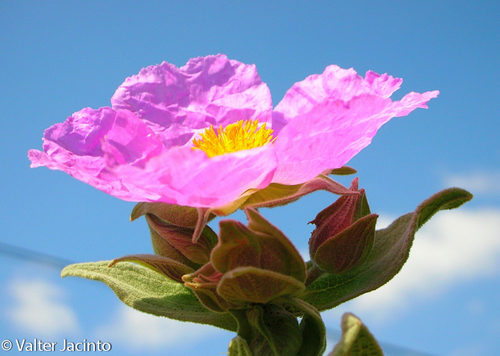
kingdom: Plantae
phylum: Tracheophyta
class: Magnoliopsida
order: Malvales
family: Cistaceae
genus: Cistus
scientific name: Cistus albidus
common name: White-leaf rock-rose
